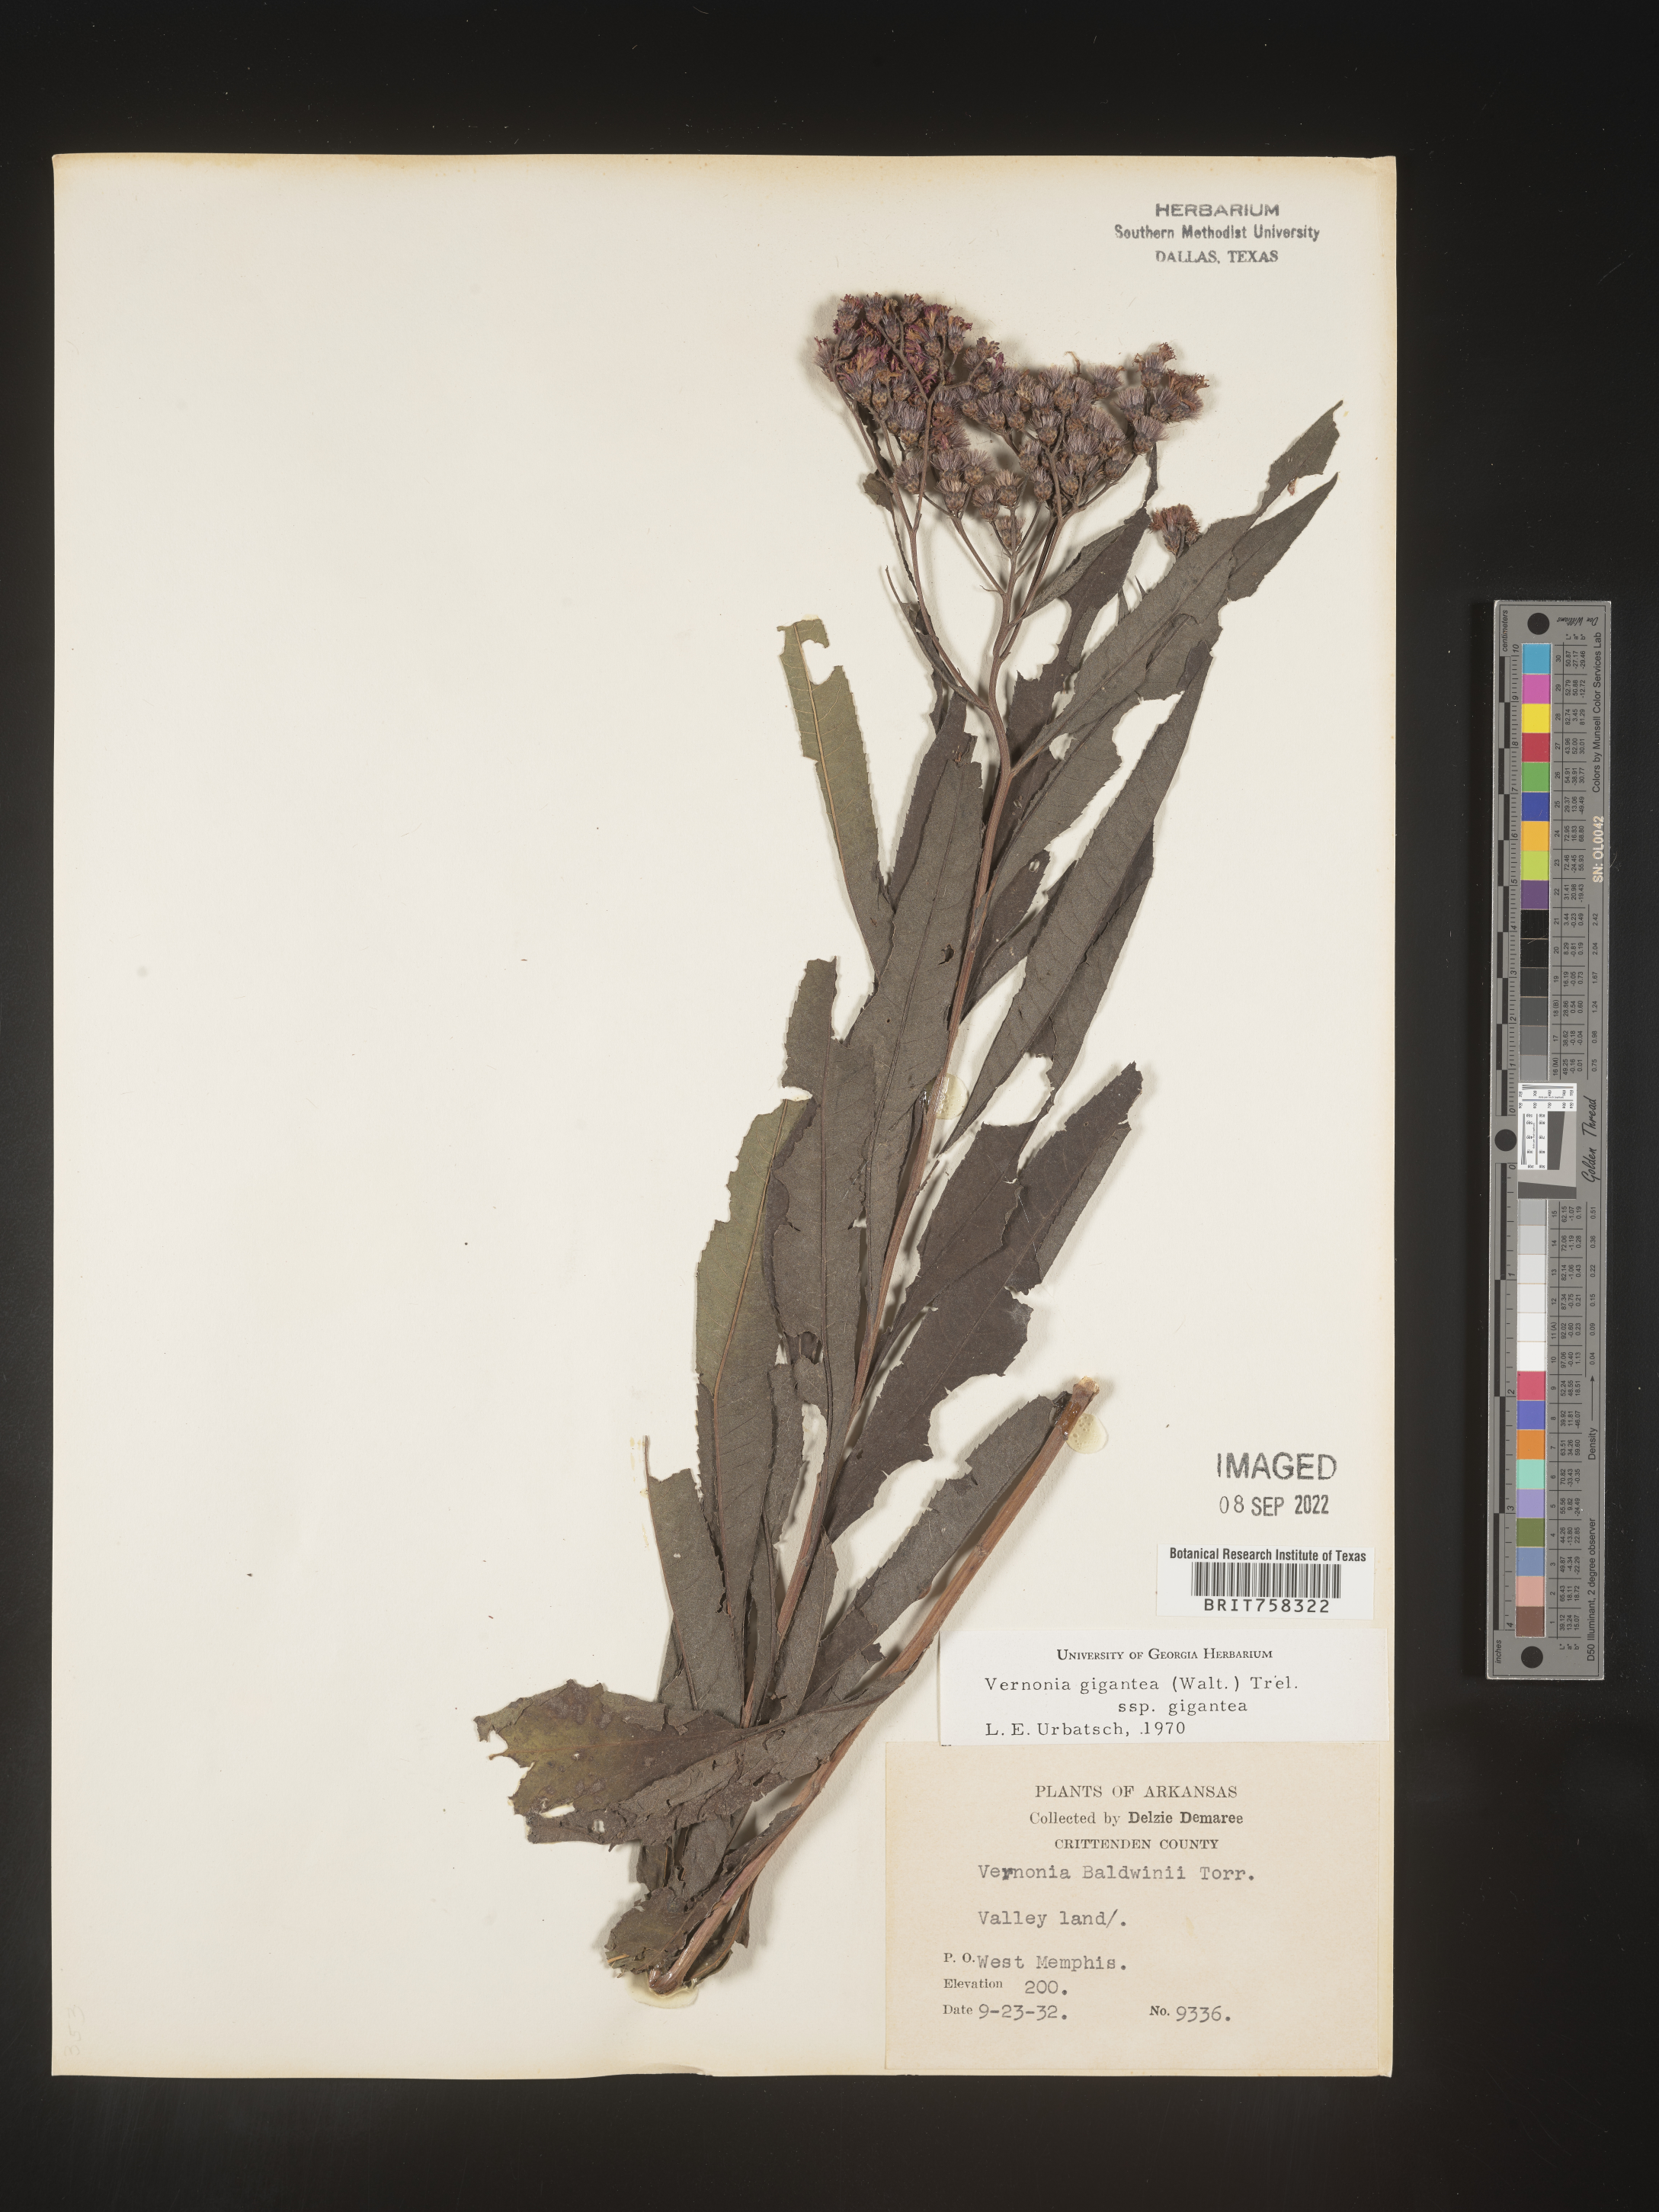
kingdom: Plantae
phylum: Tracheophyta
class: Magnoliopsida
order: Asterales
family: Asteraceae
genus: Vernonia
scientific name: Vernonia gigantea
